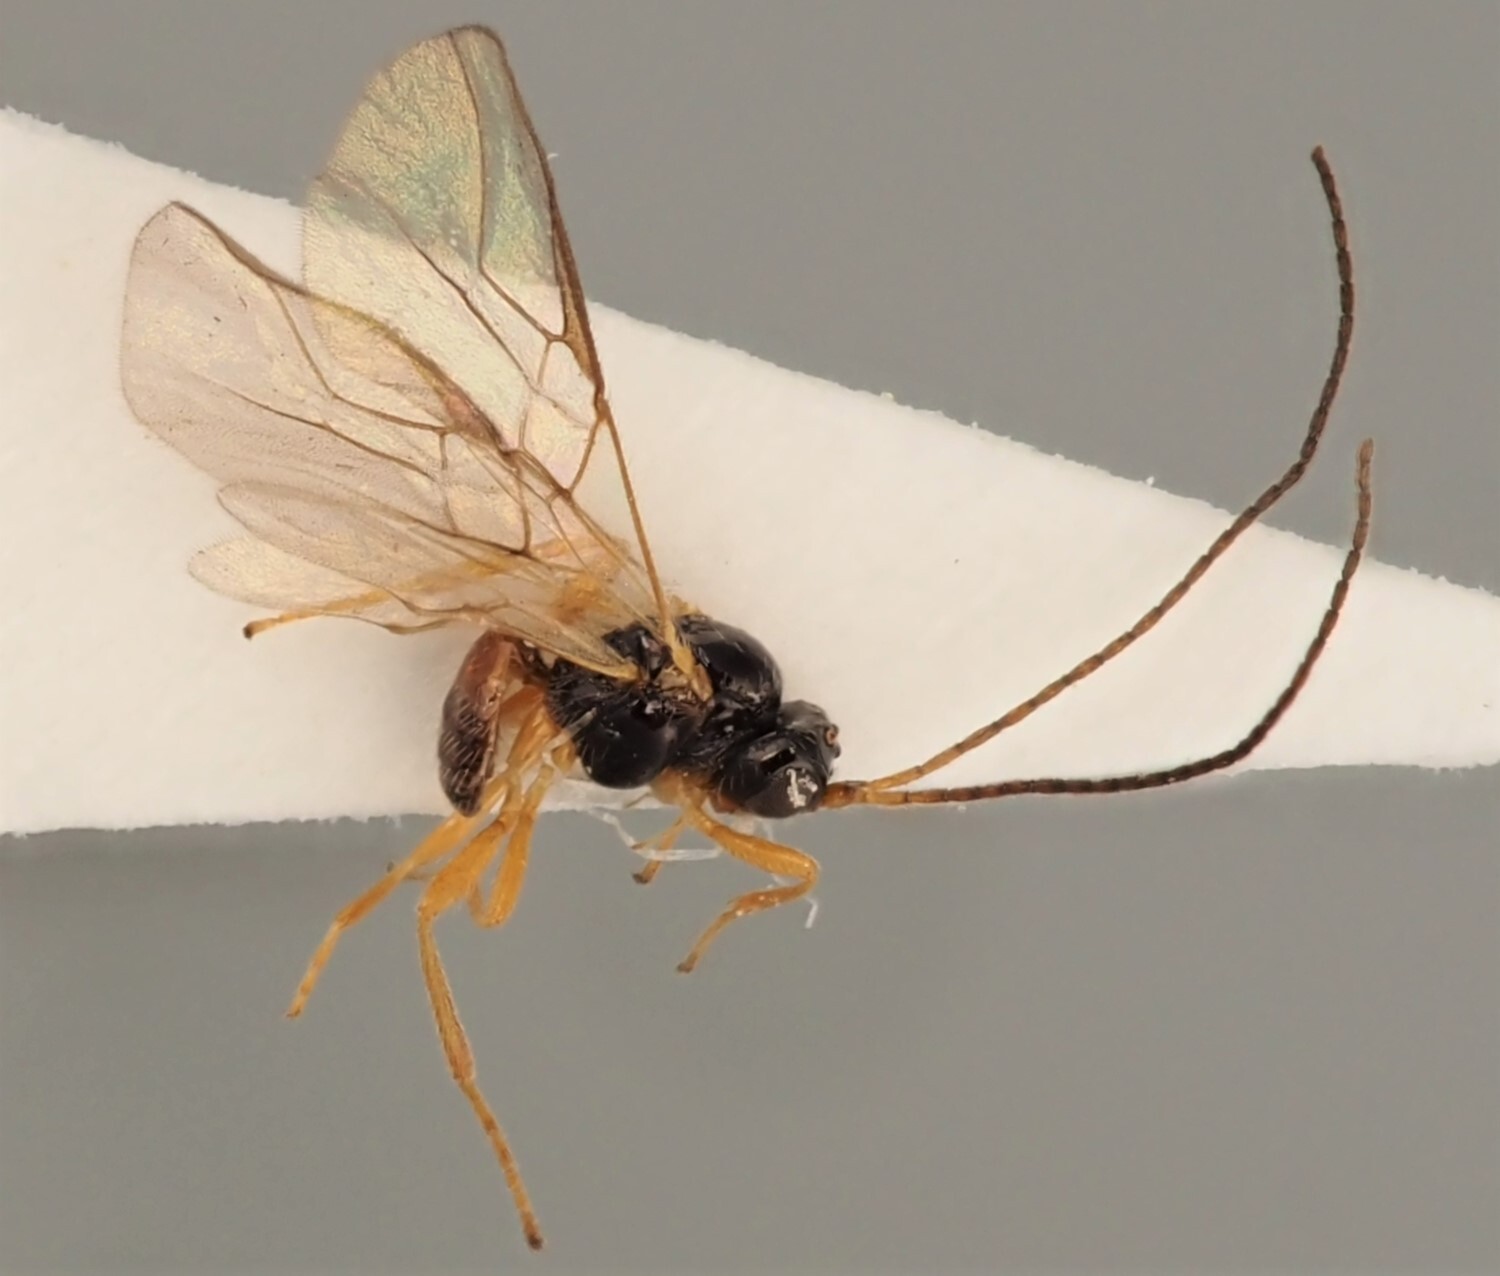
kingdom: Animalia
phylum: Arthropoda
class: Insecta
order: Hymenoptera
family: Braconidae
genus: Utetes
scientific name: Utetes aemulus
